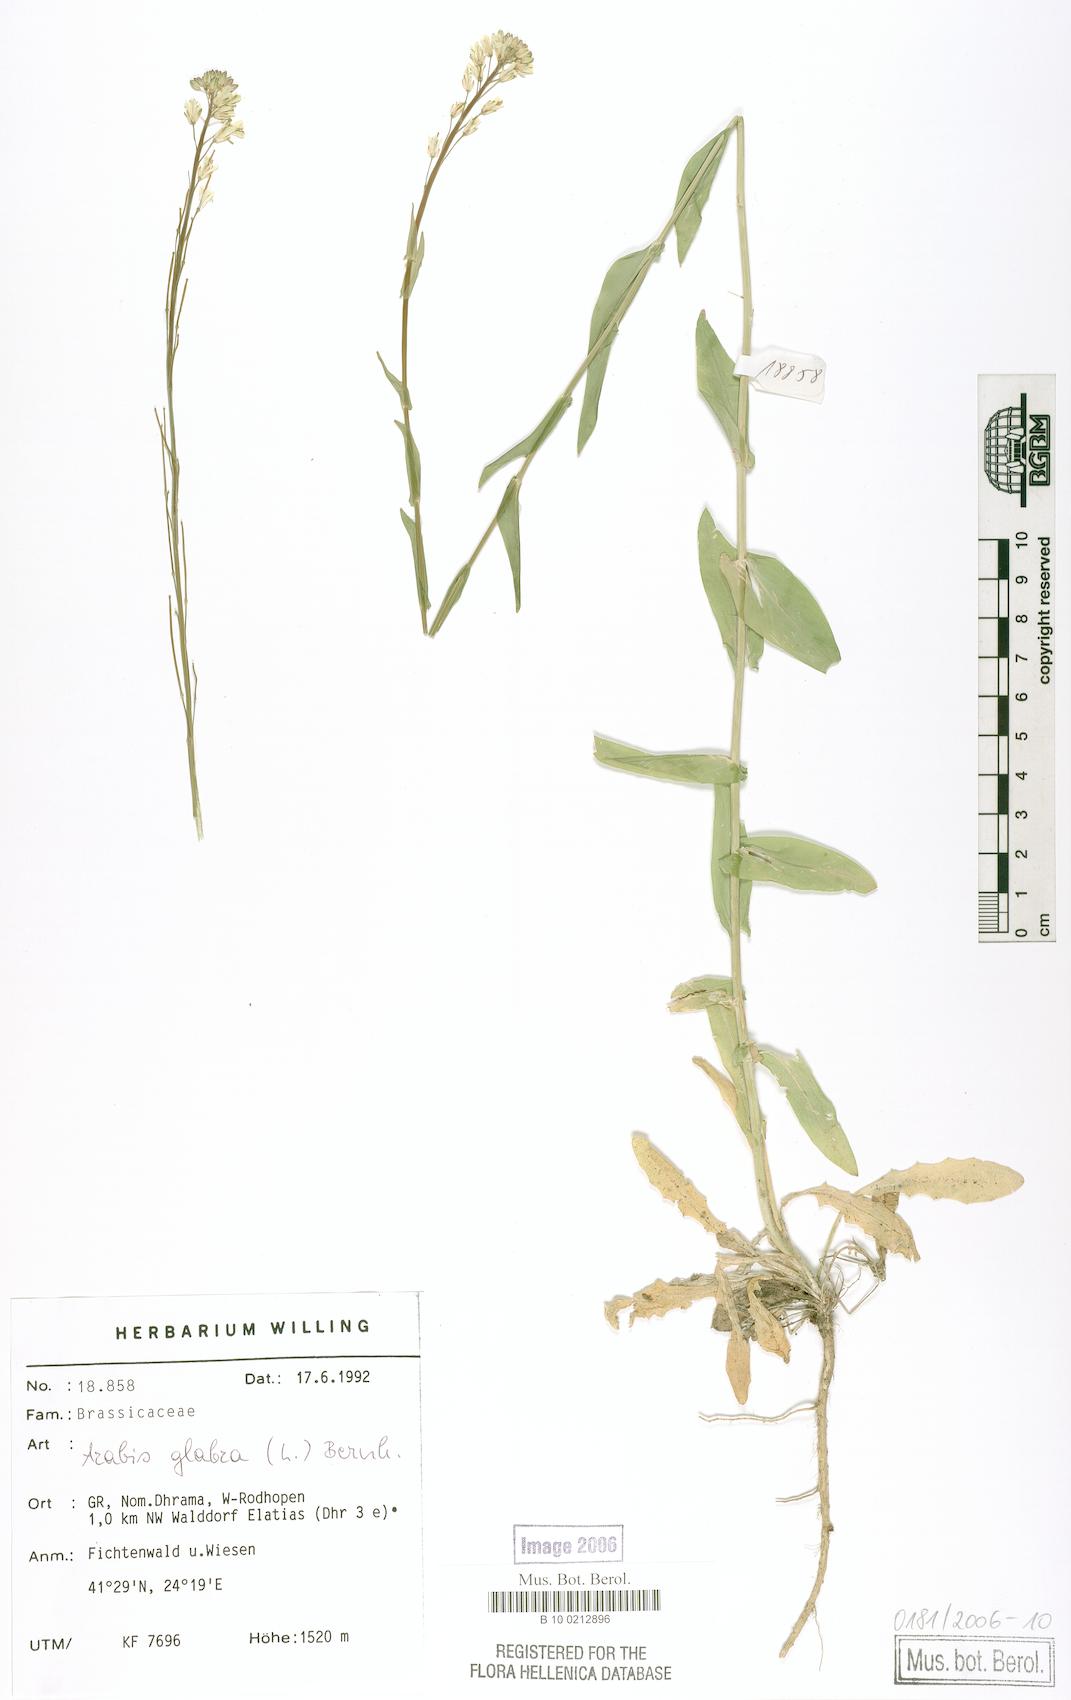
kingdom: Plantae
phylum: Tracheophyta
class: Magnoliopsida
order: Brassicales
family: Brassicaceae
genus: Turritis
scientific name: Turritis glabra
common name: Tower rockcress
